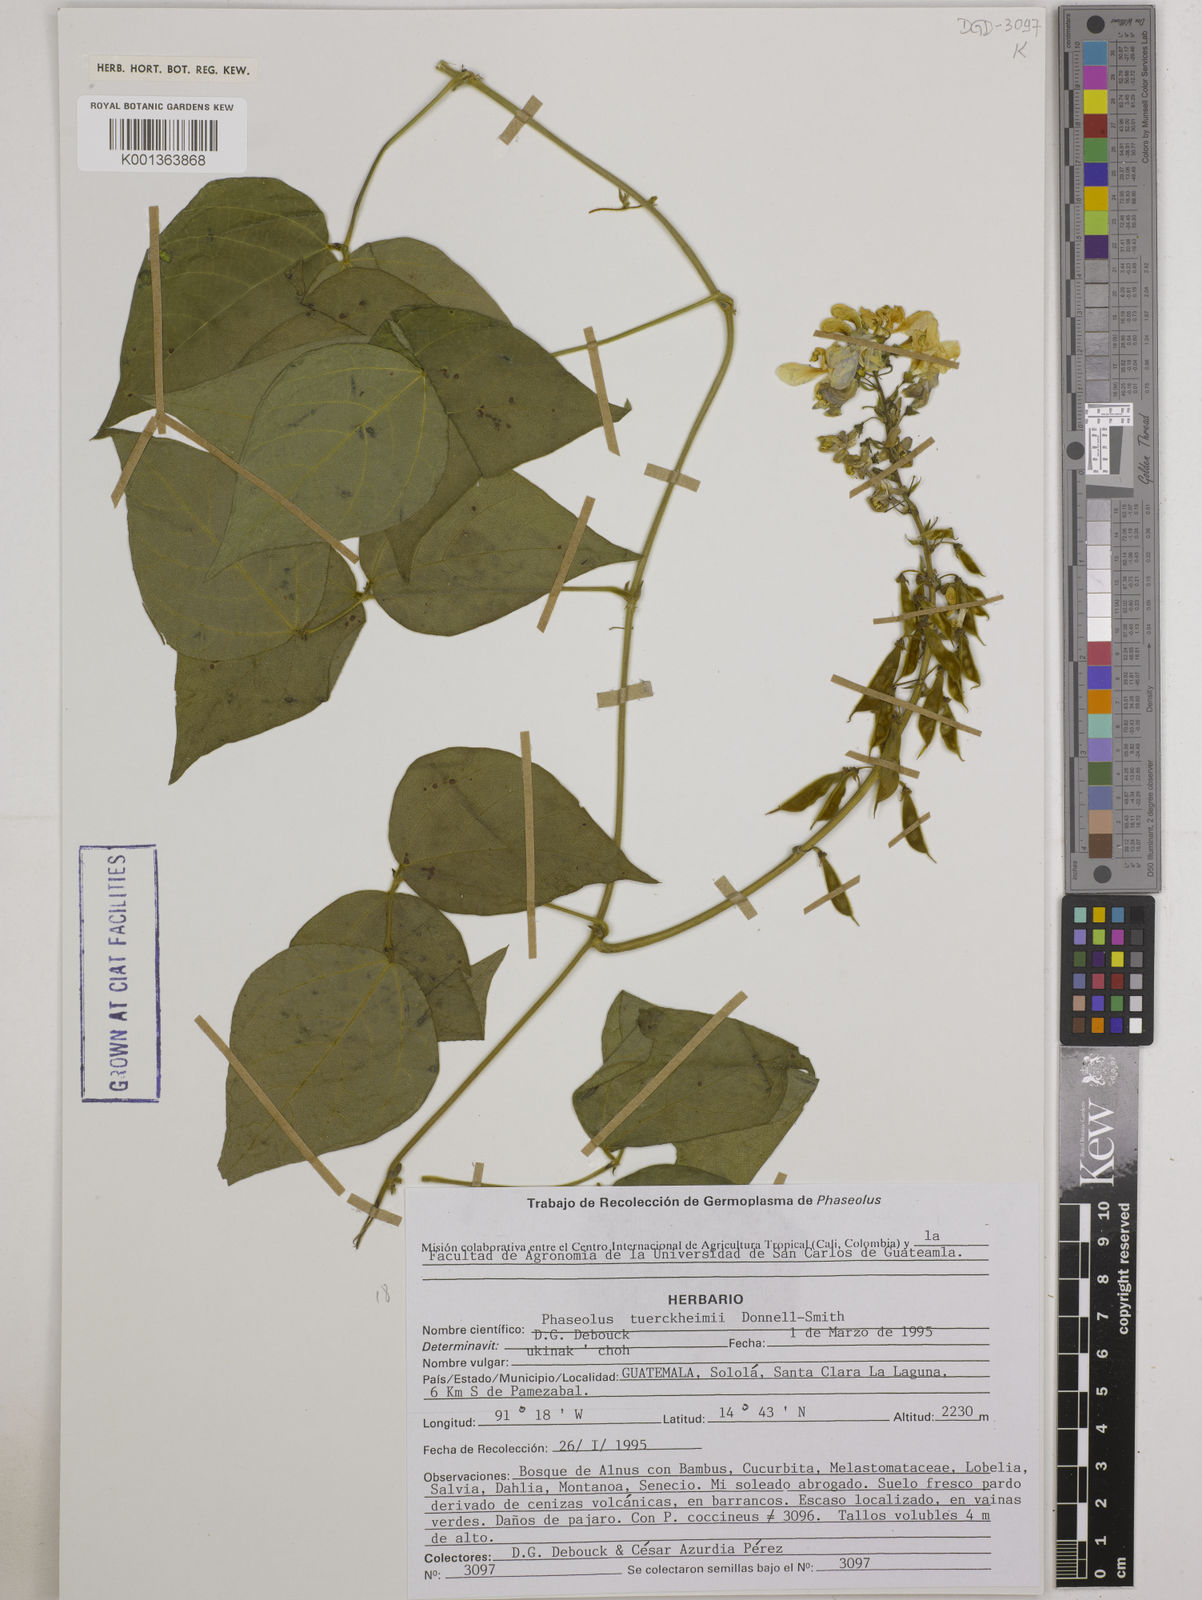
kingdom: Plantae
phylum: Tracheophyta
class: Magnoliopsida
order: Fabales
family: Fabaceae
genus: Phaseolus
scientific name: Phaseolus tuerckheimii
